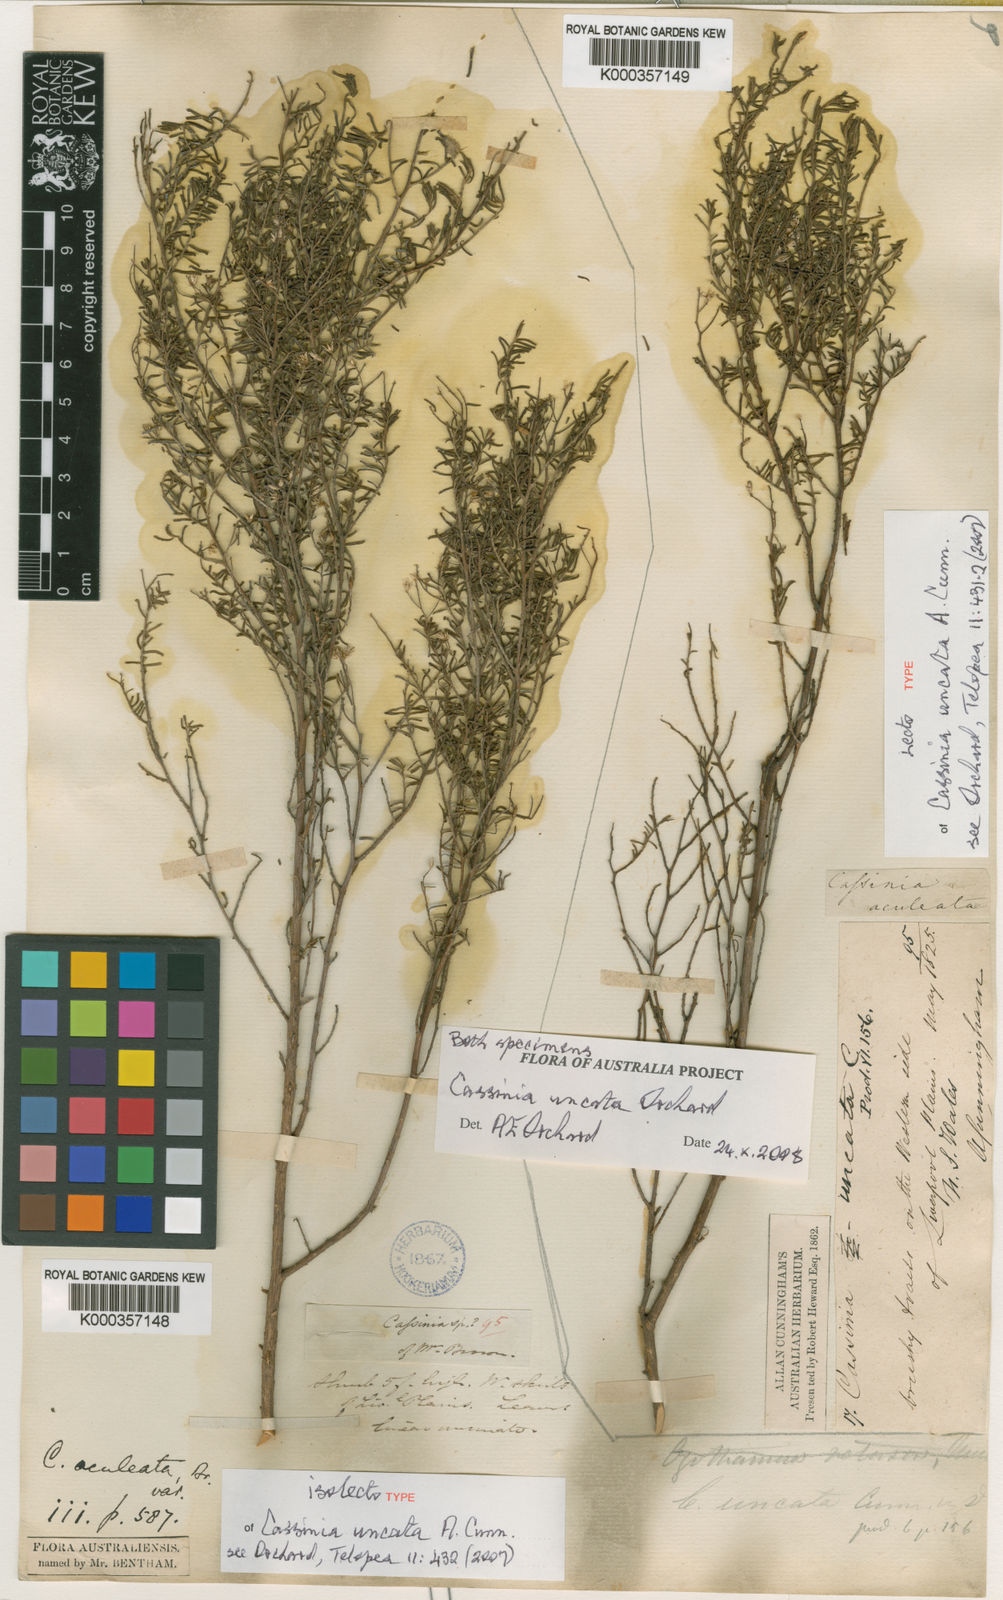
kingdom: Plantae
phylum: Tracheophyta
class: Magnoliopsida
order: Asterales
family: Asteraceae
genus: Cassinia
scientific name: Cassinia uncata
